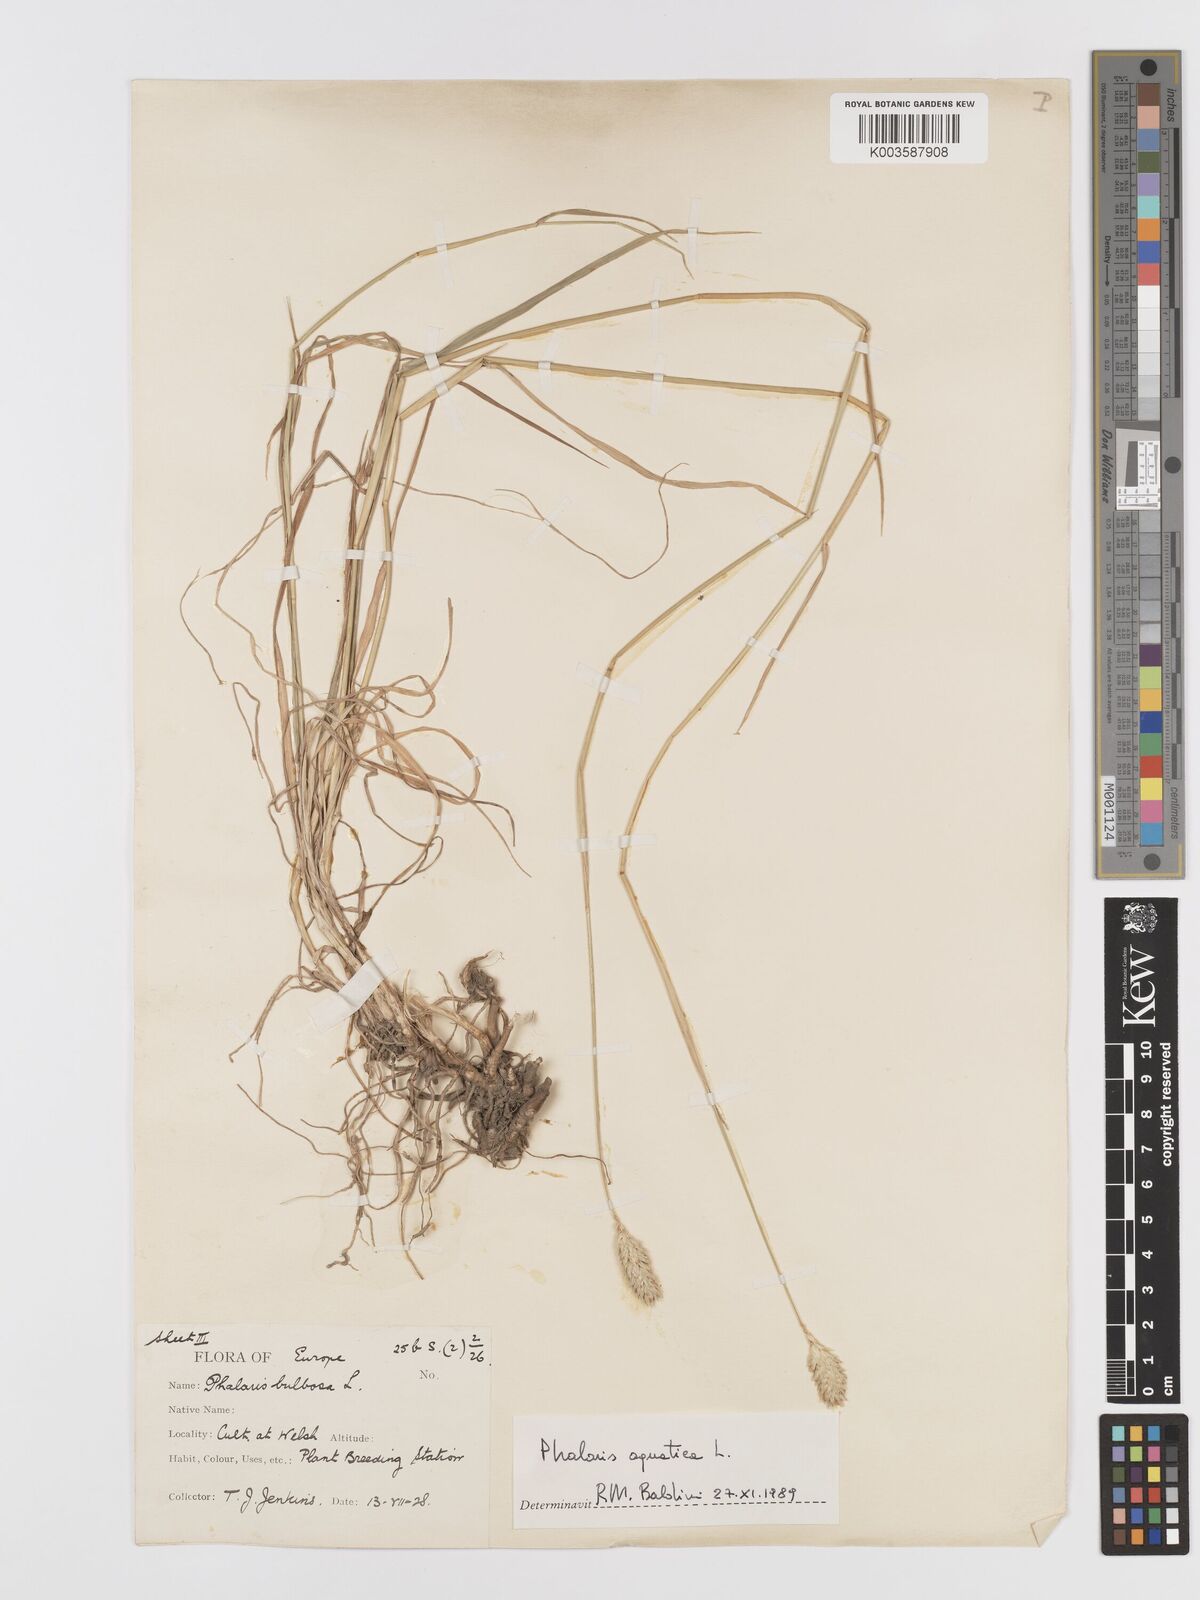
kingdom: Plantae
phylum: Tracheophyta
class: Liliopsida
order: Poales
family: Poaceae
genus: Phalaris
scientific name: Phalaris
